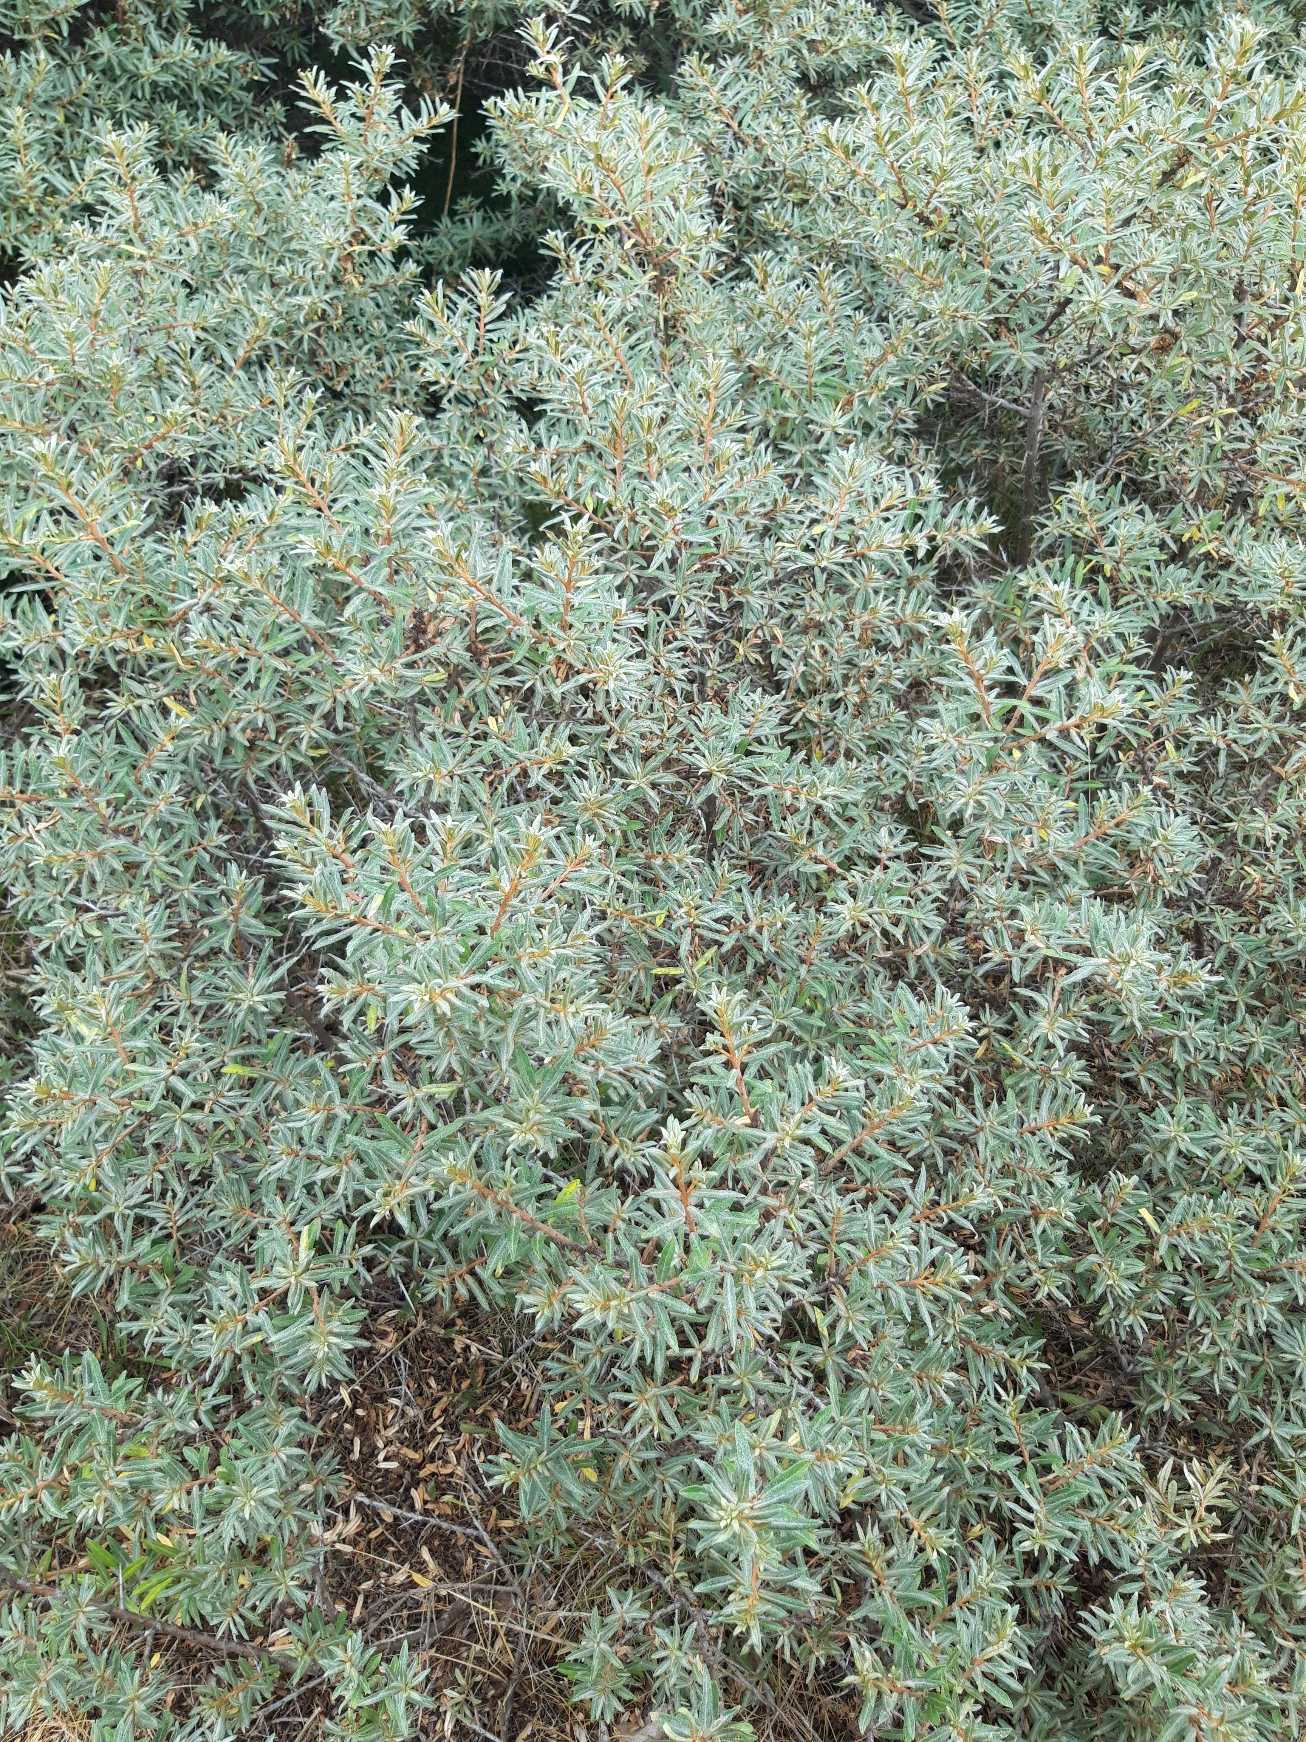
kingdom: Plantae
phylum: Tracheophyta
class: Magnoliopsida
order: Rosales
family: Elaeagnaceae
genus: Hippophae
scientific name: Hippophae rhamnoides
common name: Havtorn
